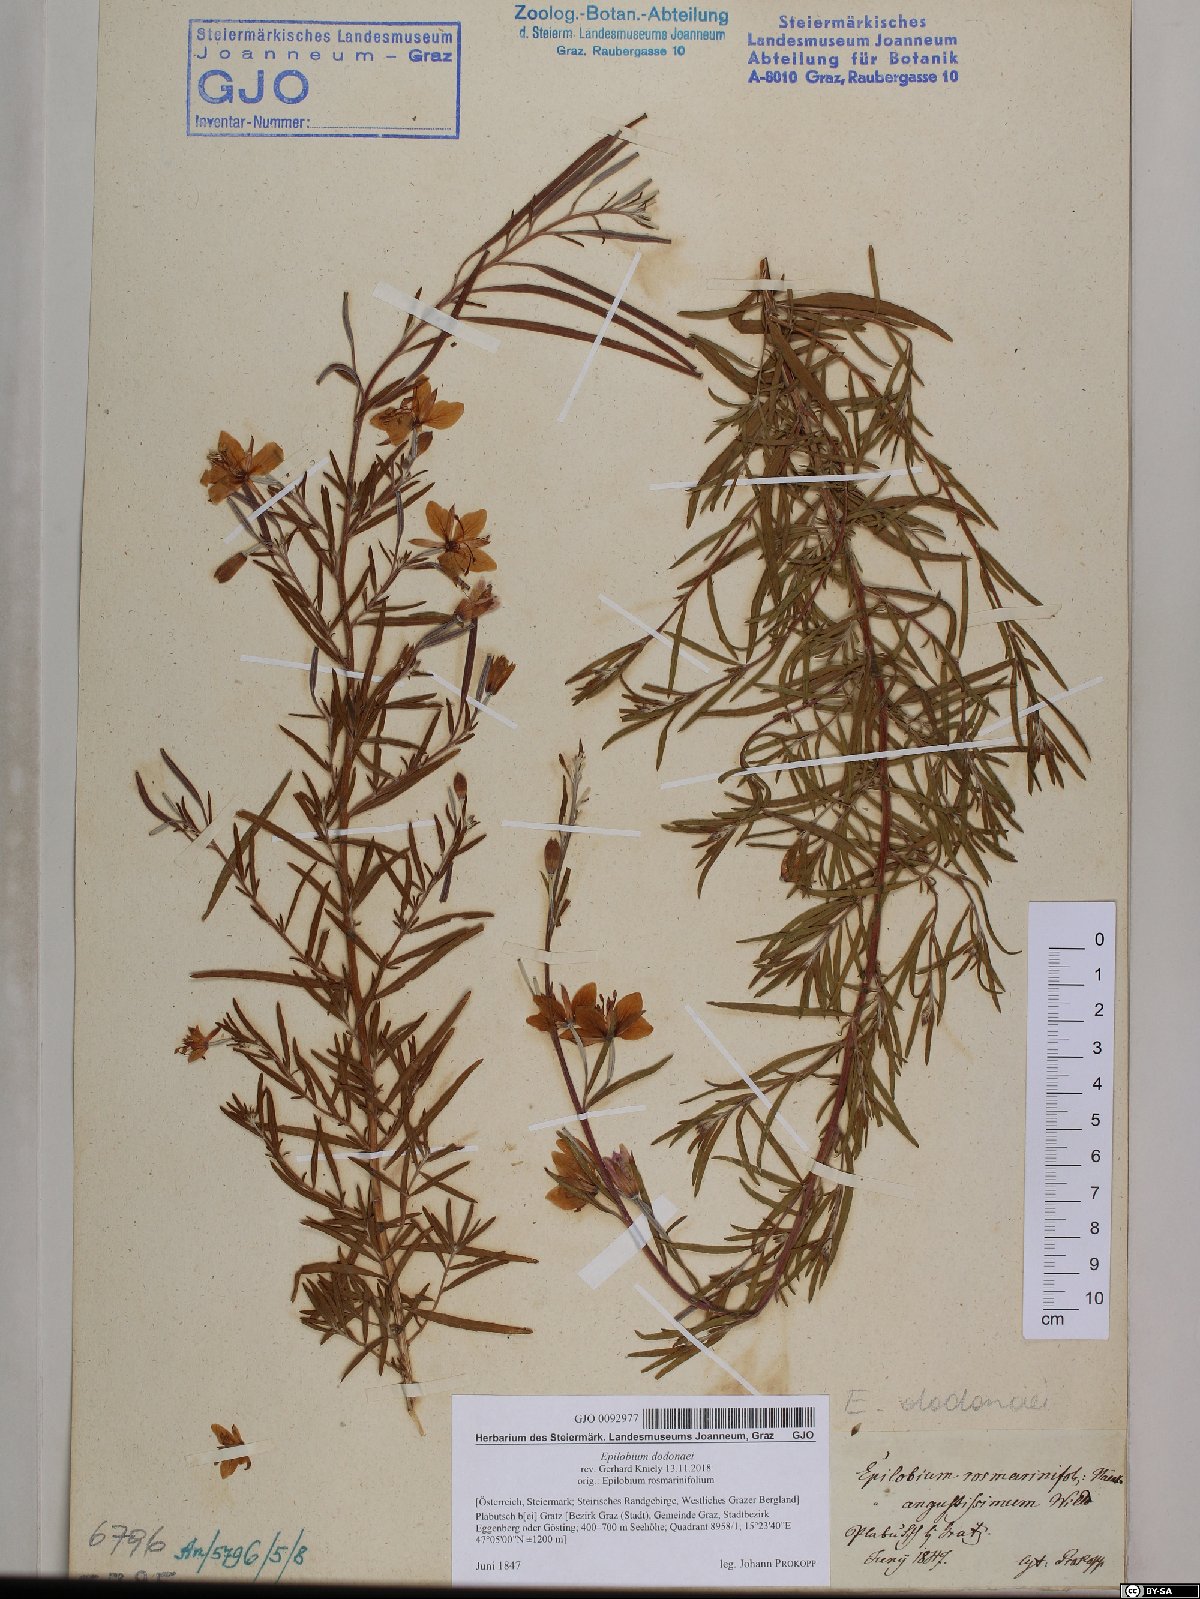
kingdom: Plantae
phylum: Tracheophyta
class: Magnoliopsida
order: Myrtales
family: Onagraceae
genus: Chamaenerion
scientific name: Chamaenerion dodonaei
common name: Rosemary-leaved willowherb
